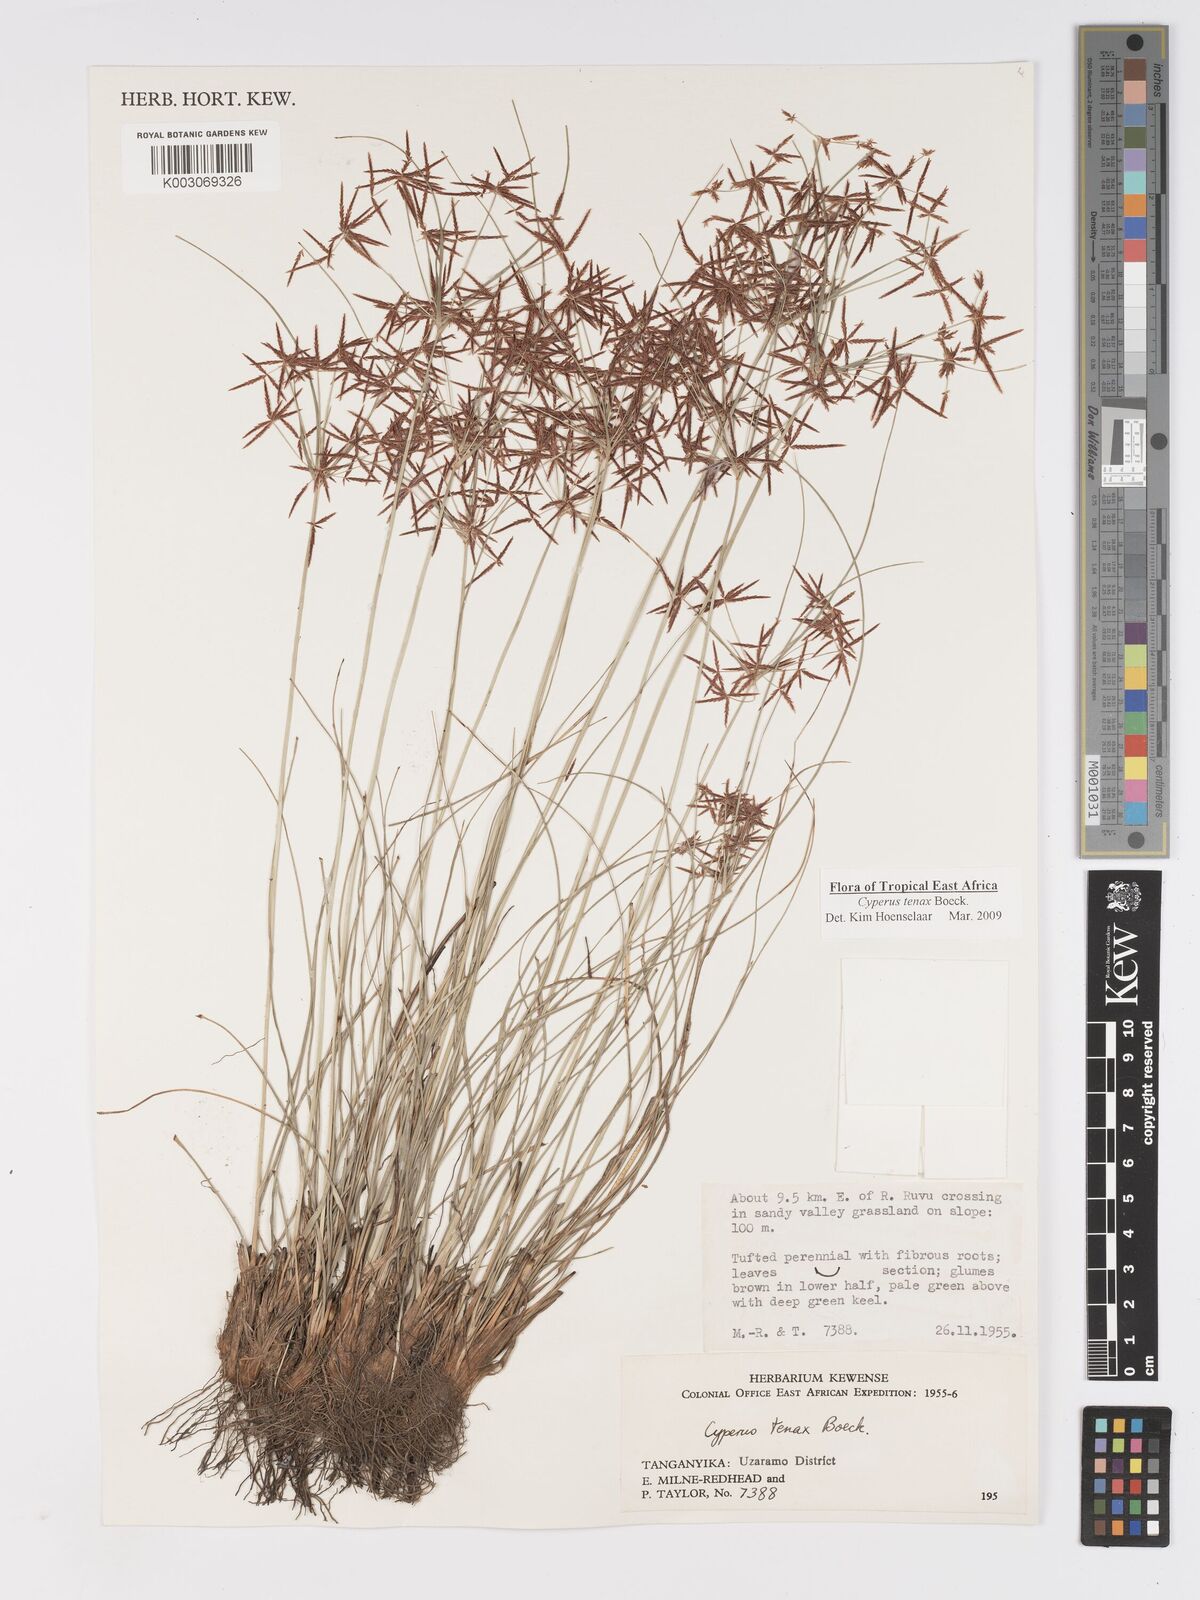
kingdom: Plantae
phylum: Tracheophyta
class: Liliopsida
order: Poales
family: Cyperaceae
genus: Cyperus
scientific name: Cyperus tenax
